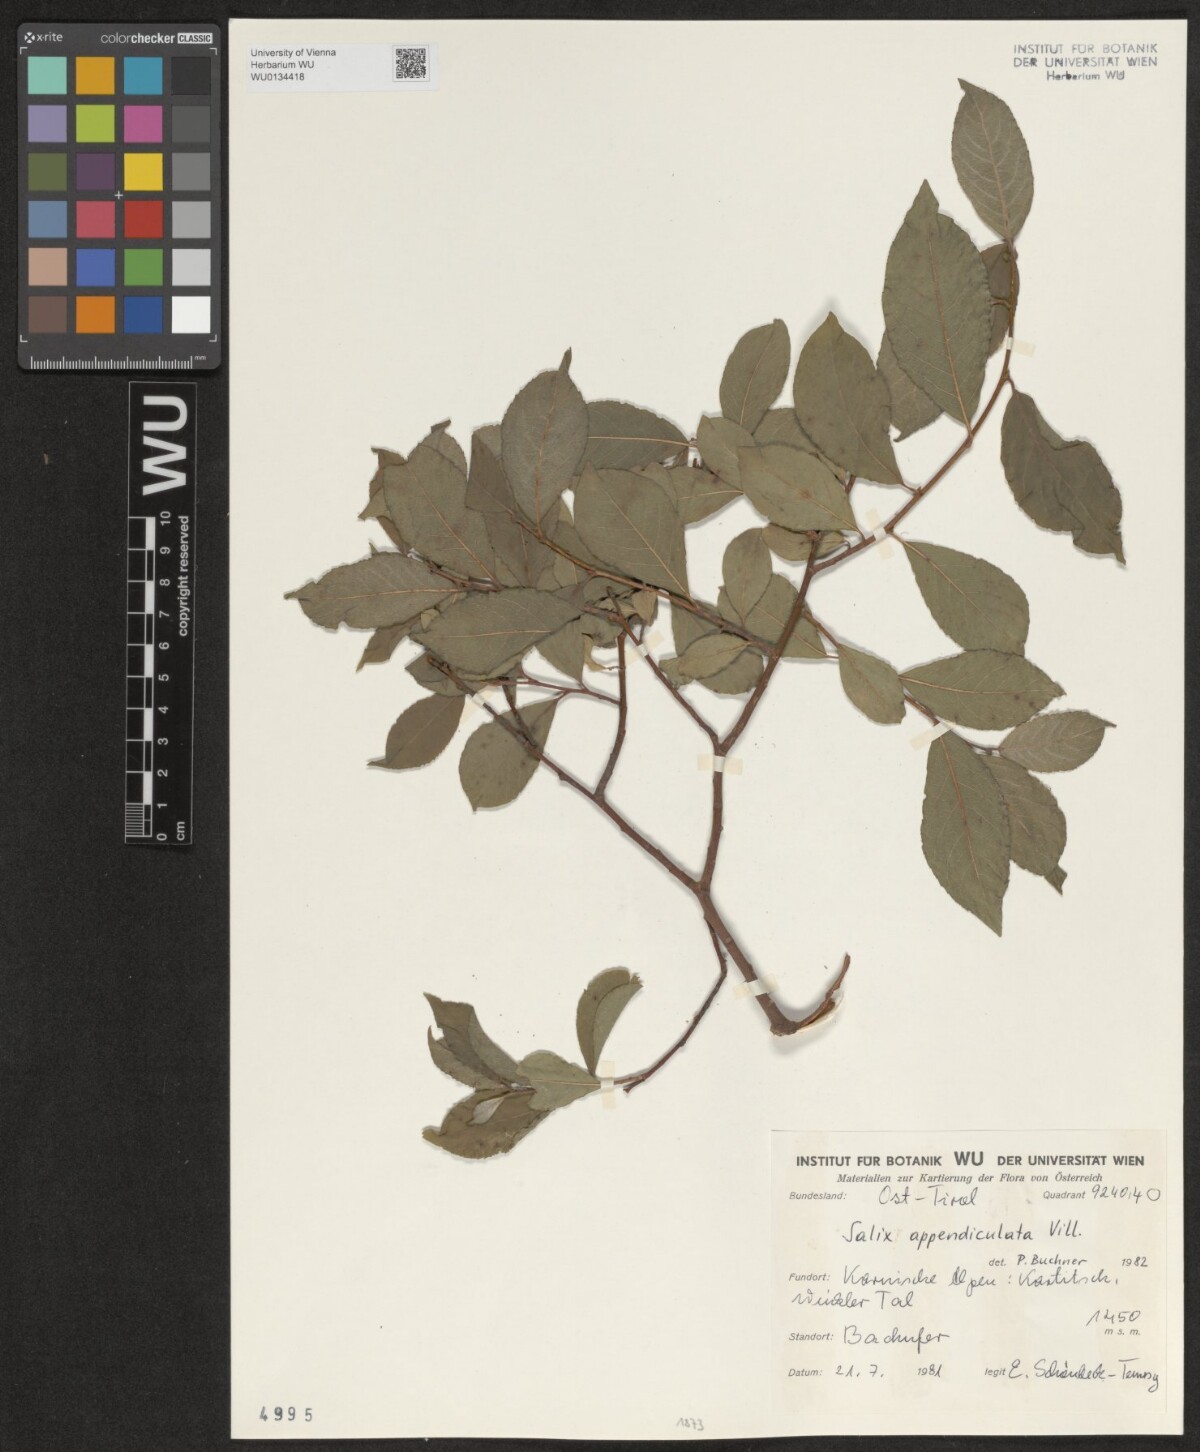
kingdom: Plantae
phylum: Tracheophyta
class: Magnoliopsida
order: Malpighiales
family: Salicaceae
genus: Salix
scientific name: Salix appendiculata
